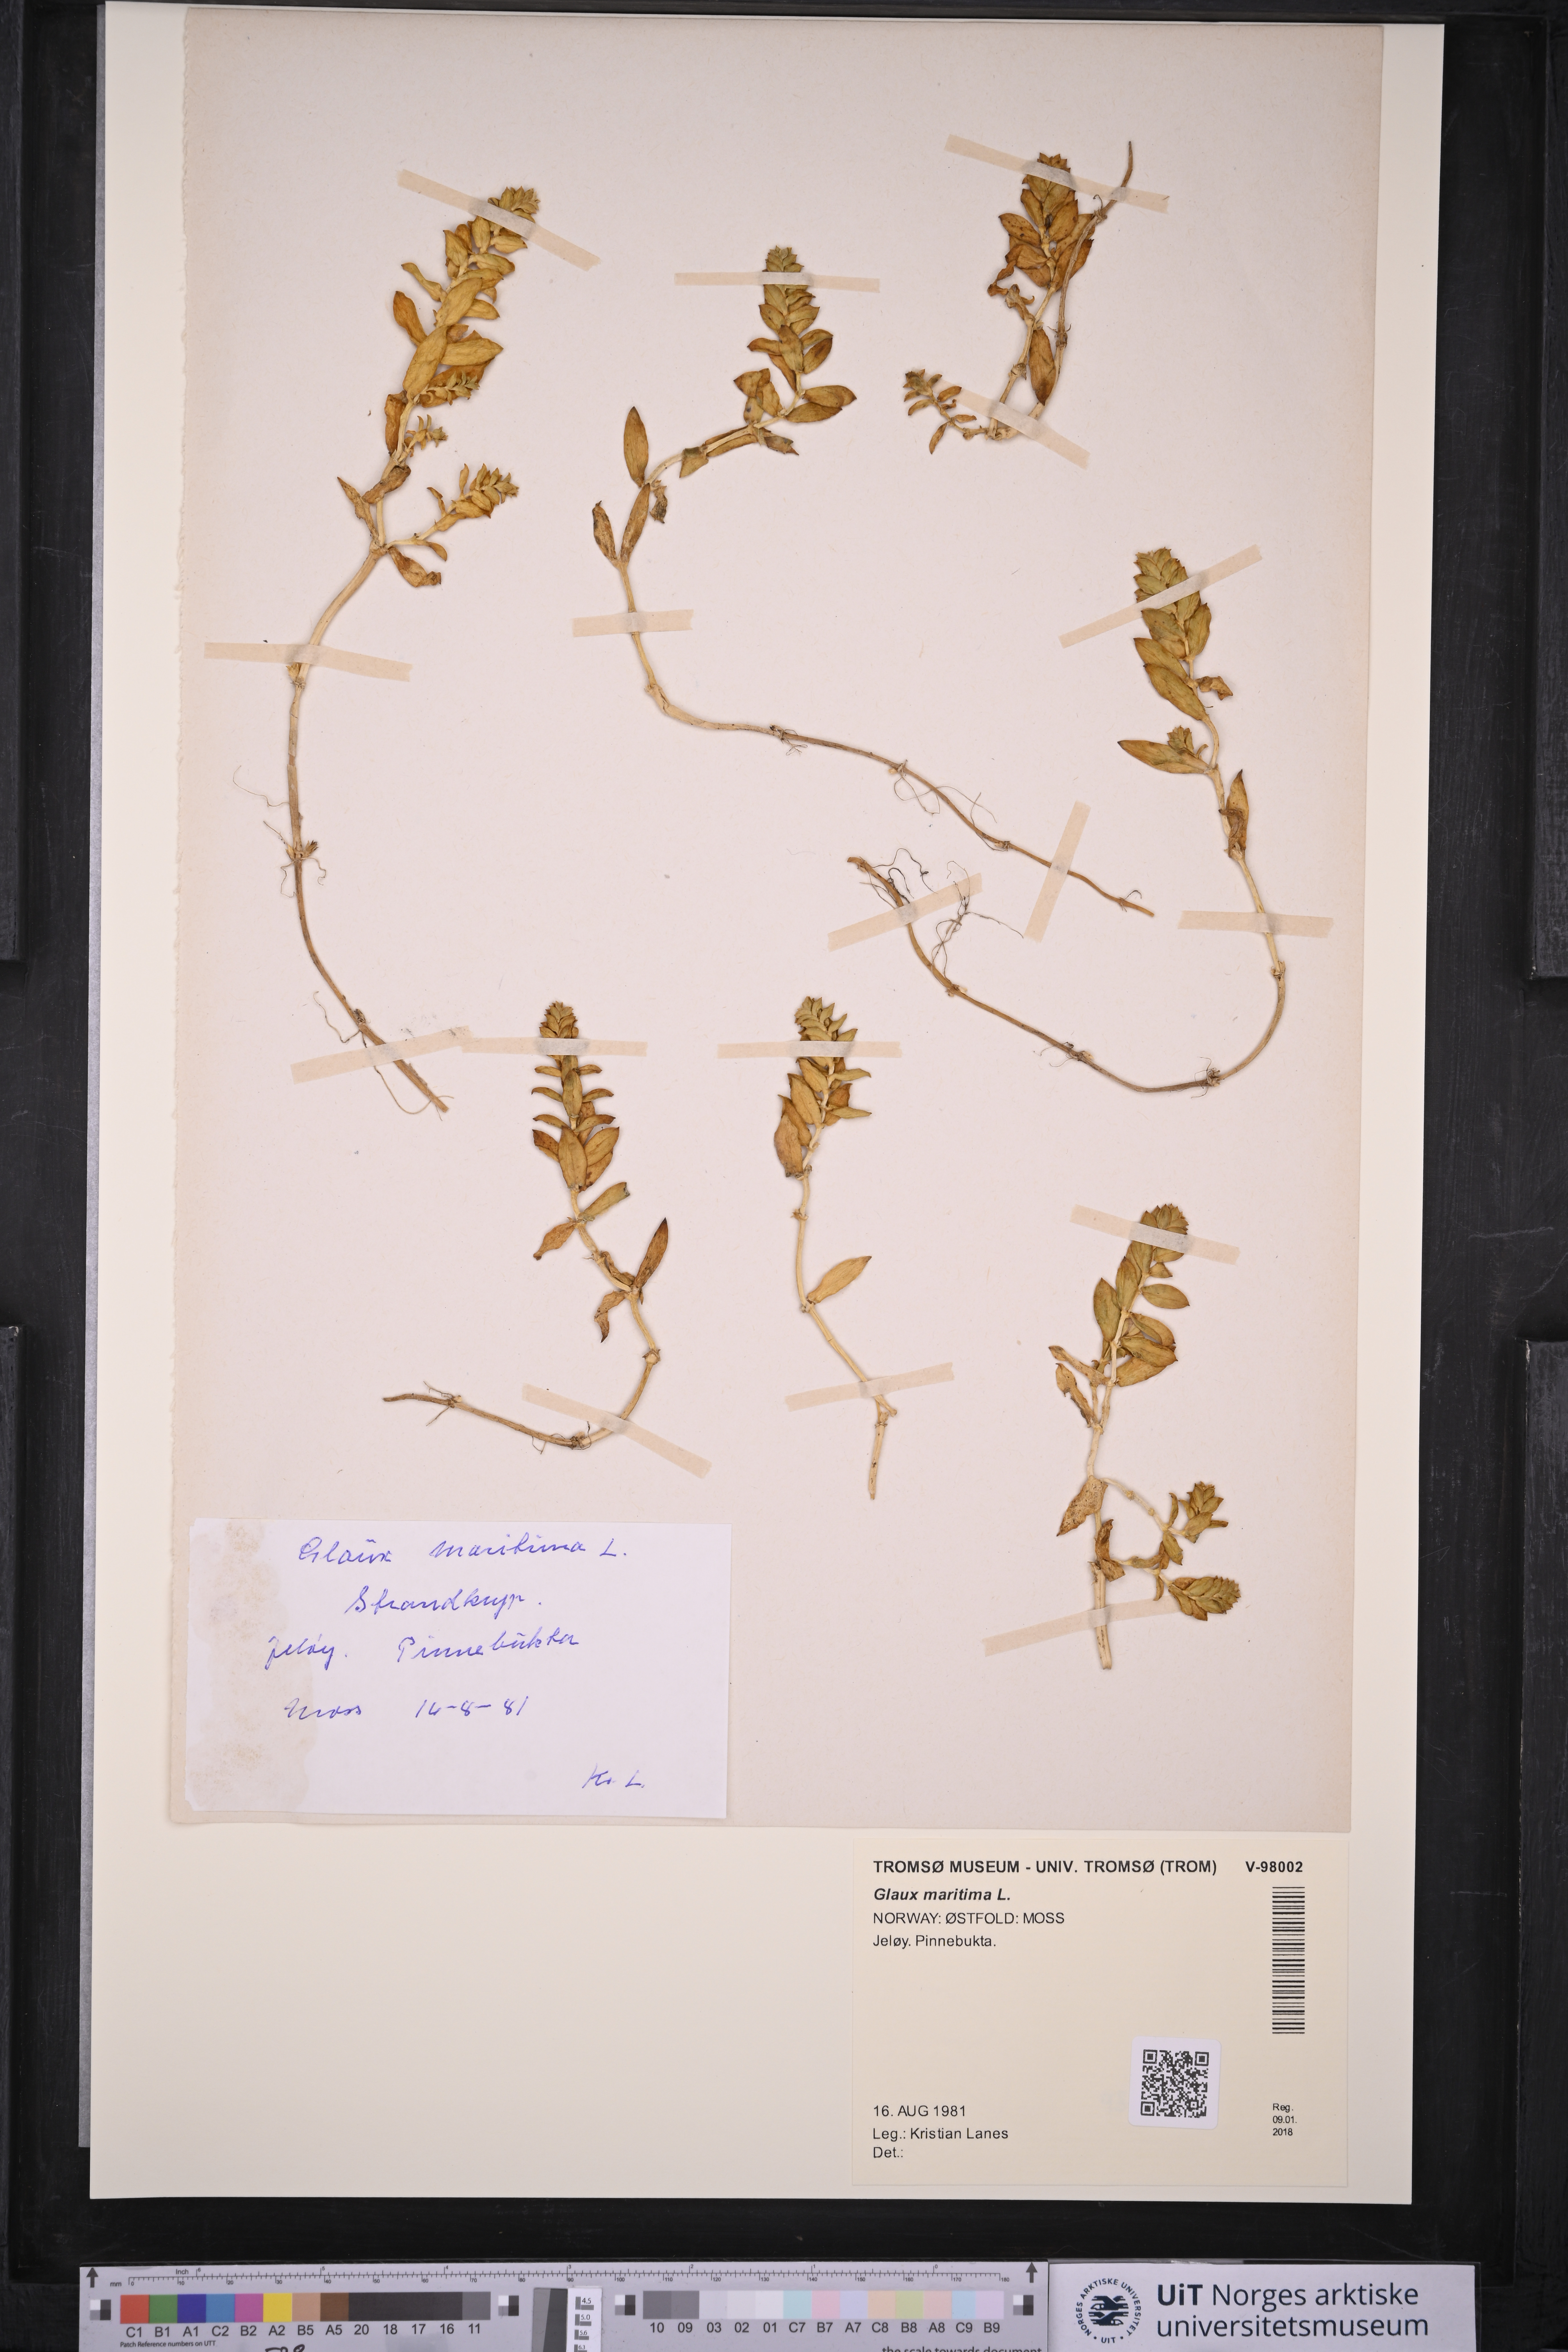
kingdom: Plantae
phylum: Tracheophyta
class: Magnoliopsida
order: Ericales
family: Primulaceae
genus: Lysimachia
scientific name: Lysimachia maritima
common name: Sea milkwort
